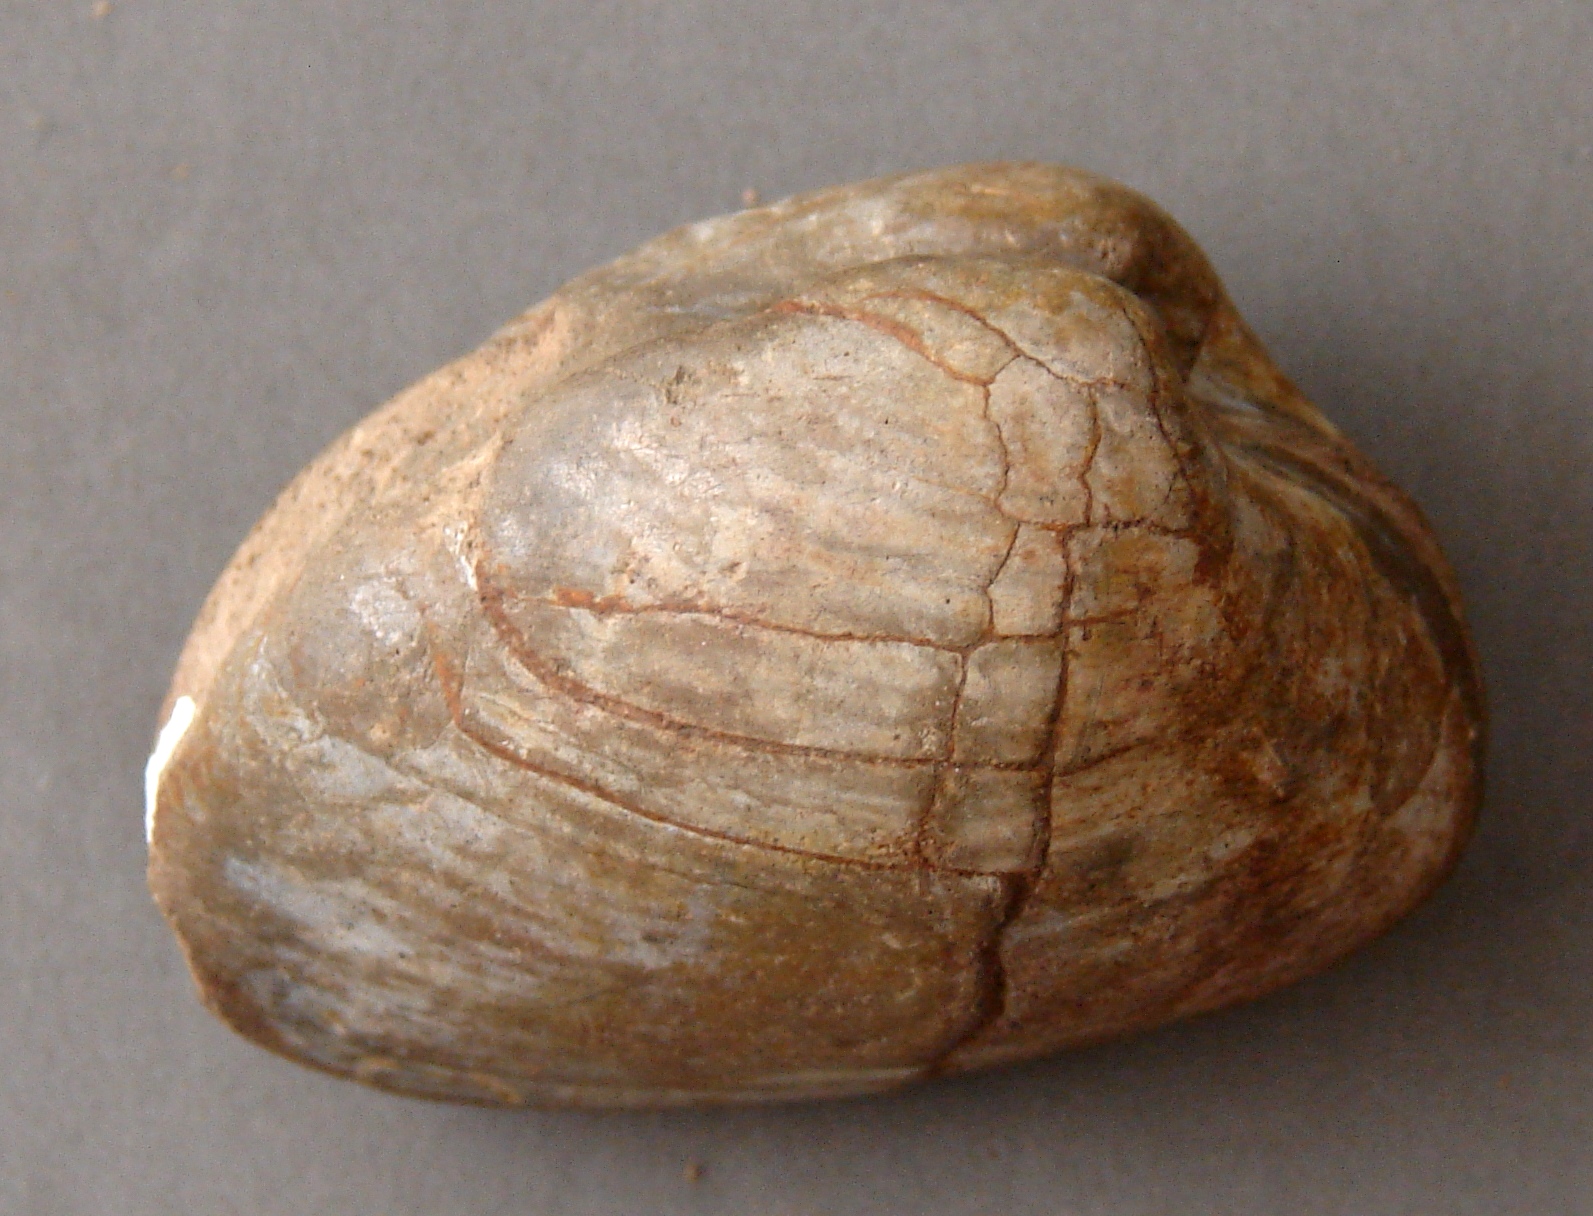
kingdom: Animalia
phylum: Mollusca
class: Bivalvia
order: Myida
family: Ceratomyidae
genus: Gresslya
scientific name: Gresslya
